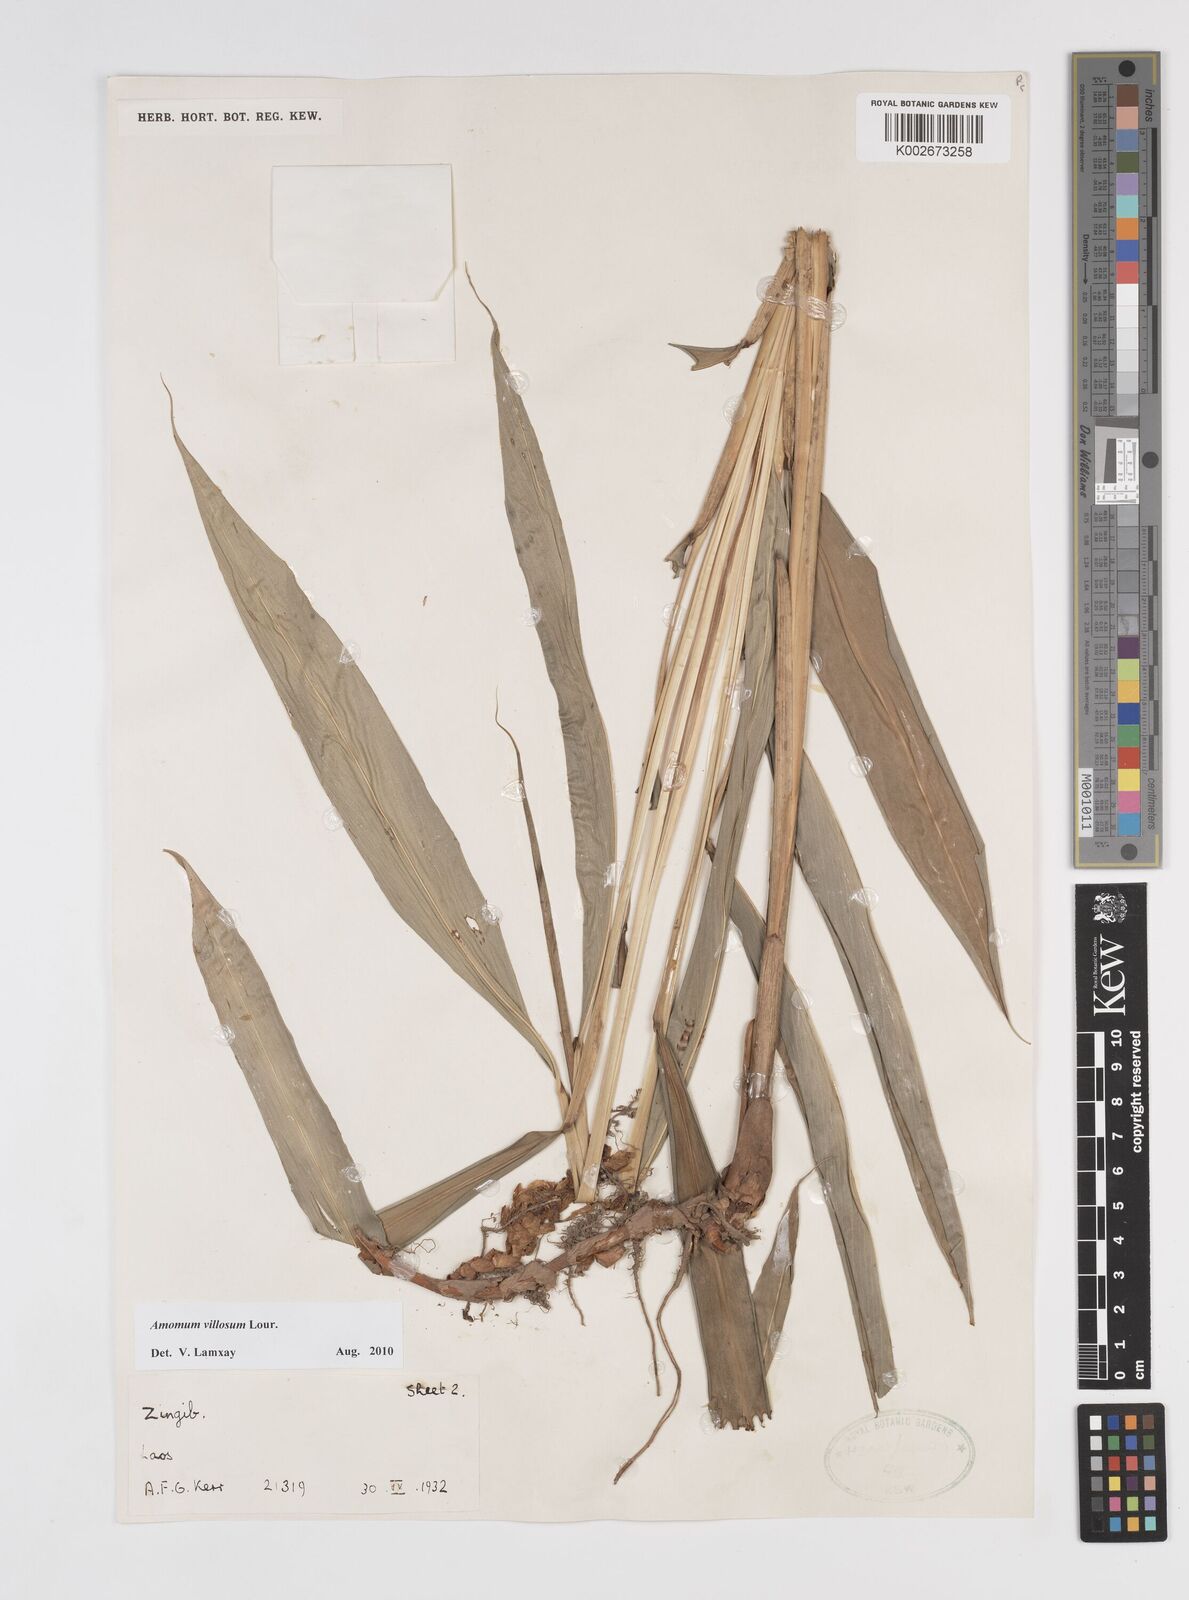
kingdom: Plantae
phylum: Tracheophyta
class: Liliopsida
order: Zingiberales
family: Zingiberaceae
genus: Wurfbainia
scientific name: Wurfbainia villosa
